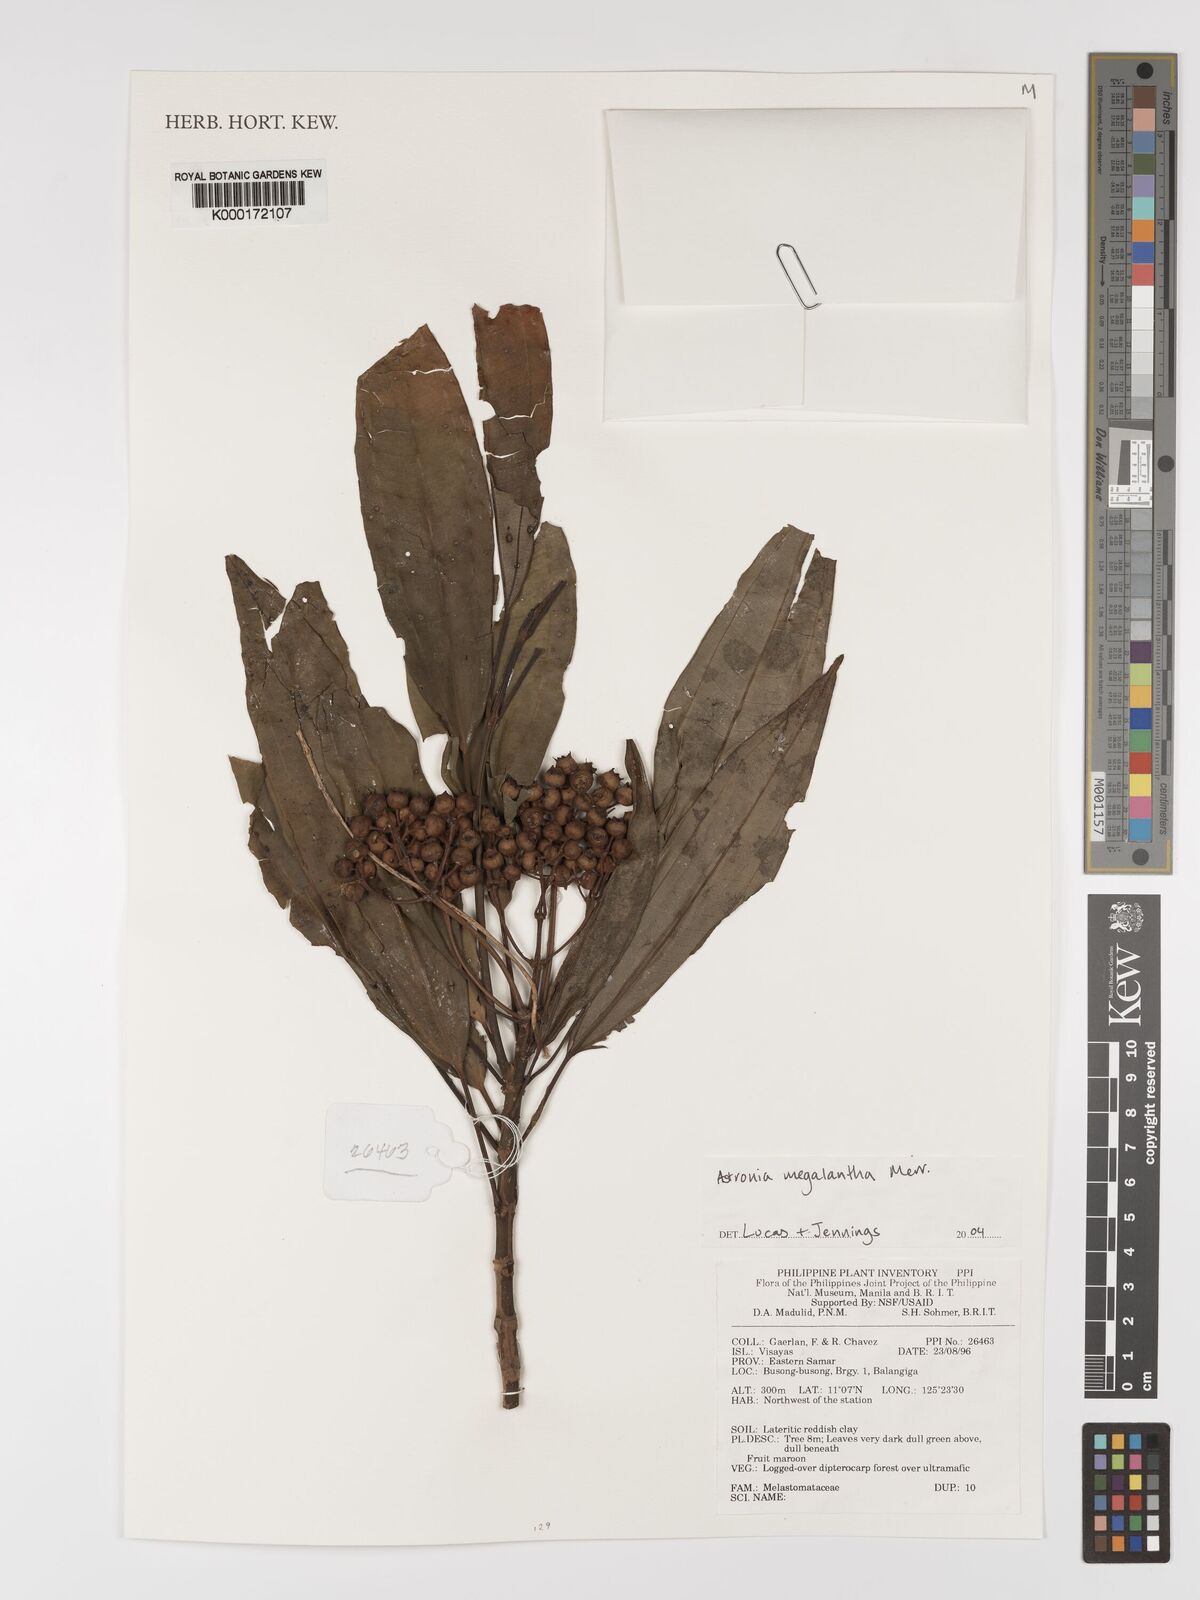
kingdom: Plantae
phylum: Tracheophyta
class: Magnoliopsida
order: Myrtales
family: Melastomataceae
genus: Astronia
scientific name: Astronia megalantha
